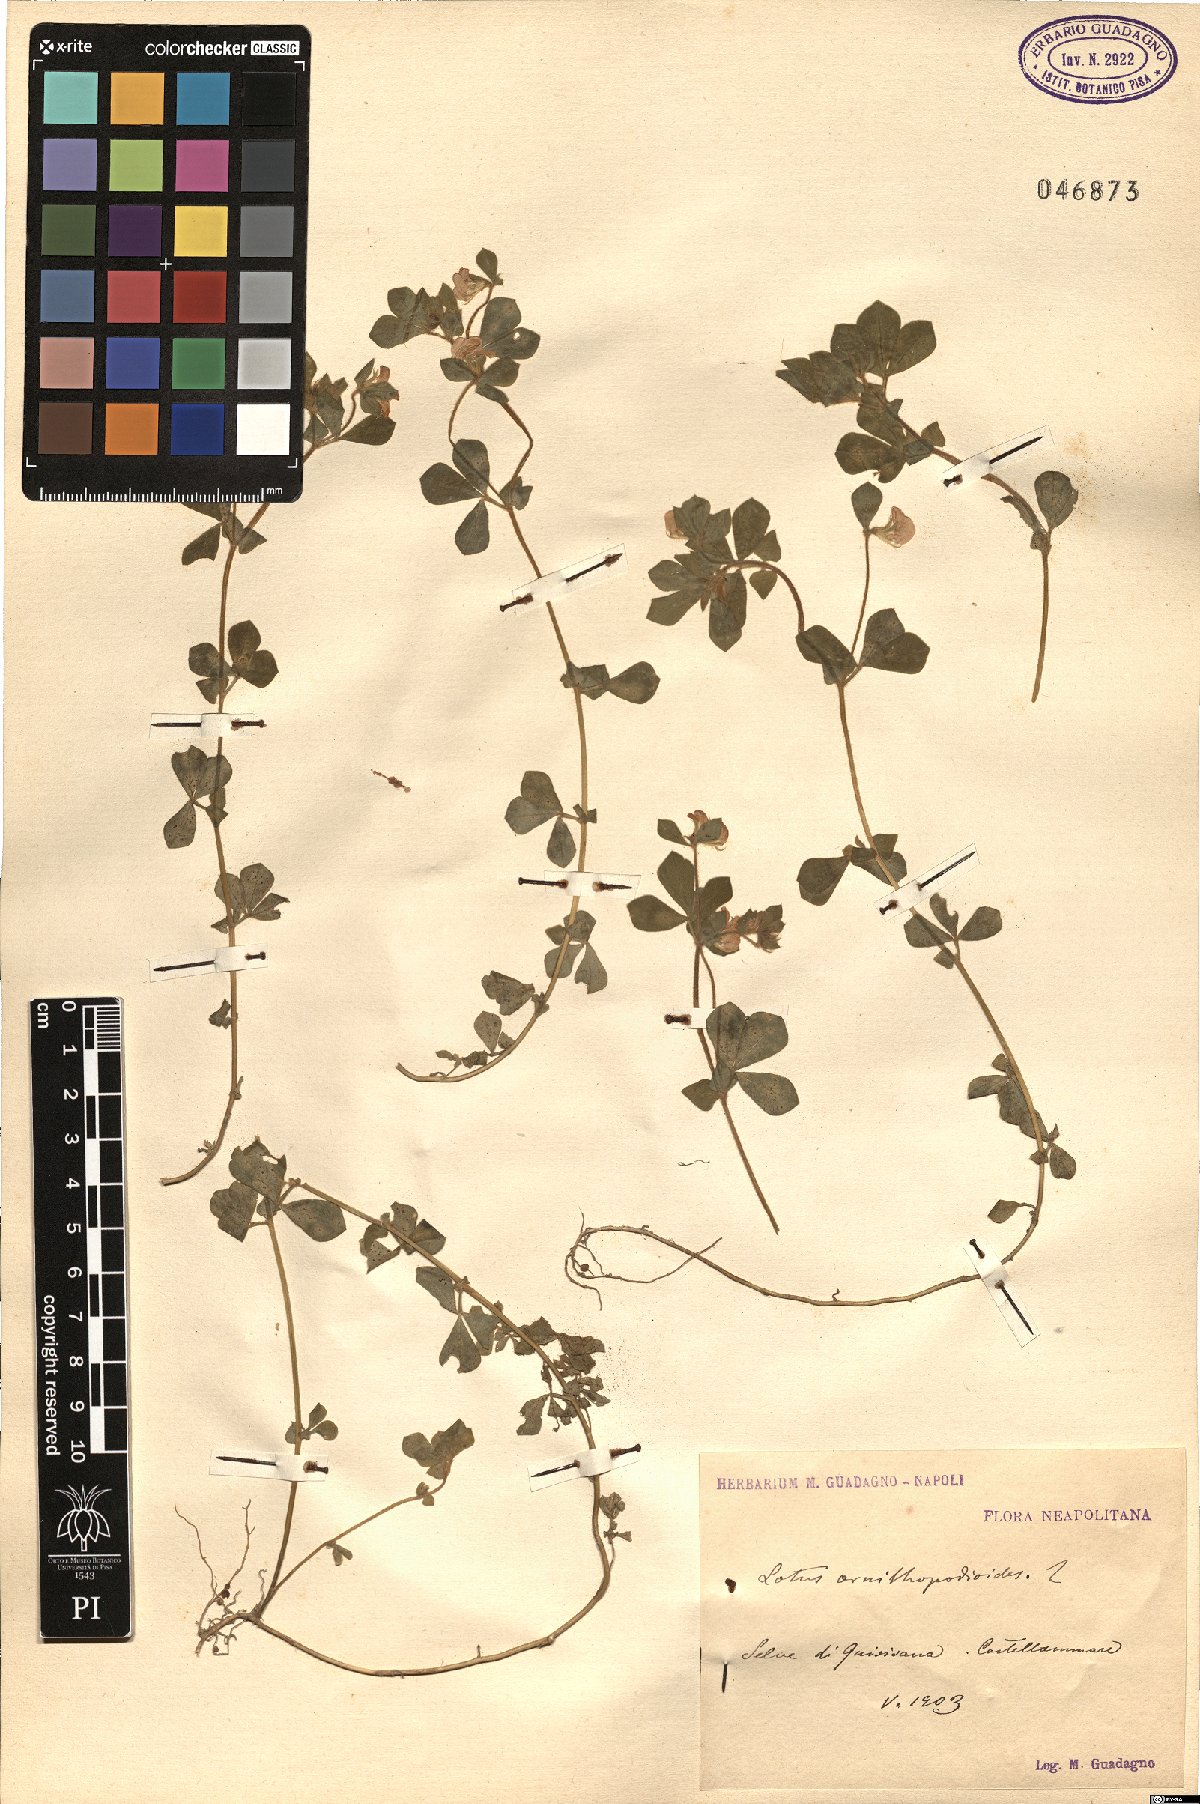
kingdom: Plantae
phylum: Tracheophyta
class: Magnoliopsida
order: Fabales
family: Fabaceae
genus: Lotus
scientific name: Lotus ornithopodioides
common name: Southern bird's-foot trefoil
